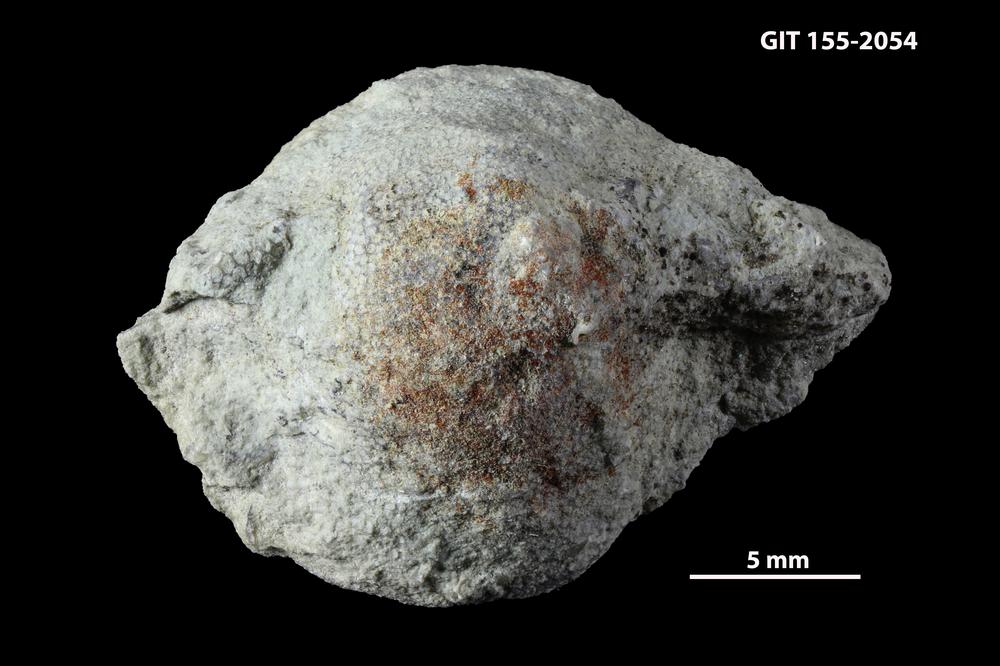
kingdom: Animalia
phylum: Bryozoa
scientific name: Bryozoa
